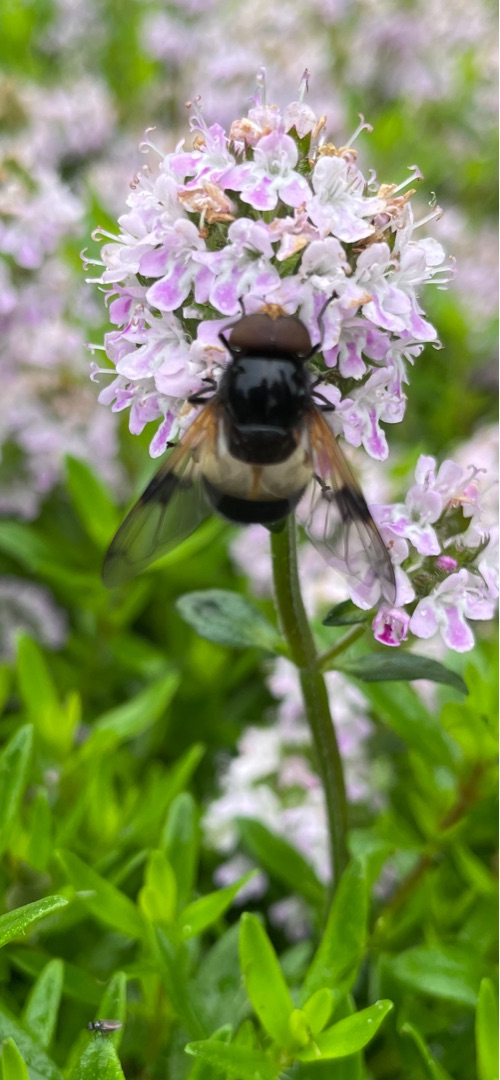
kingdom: Animalia
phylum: Arthropoda
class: Insecta
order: Diptera
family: Syrphidae
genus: Volucella
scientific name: Volucella pellucens
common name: Hvidbåndet humlesvirreflue
